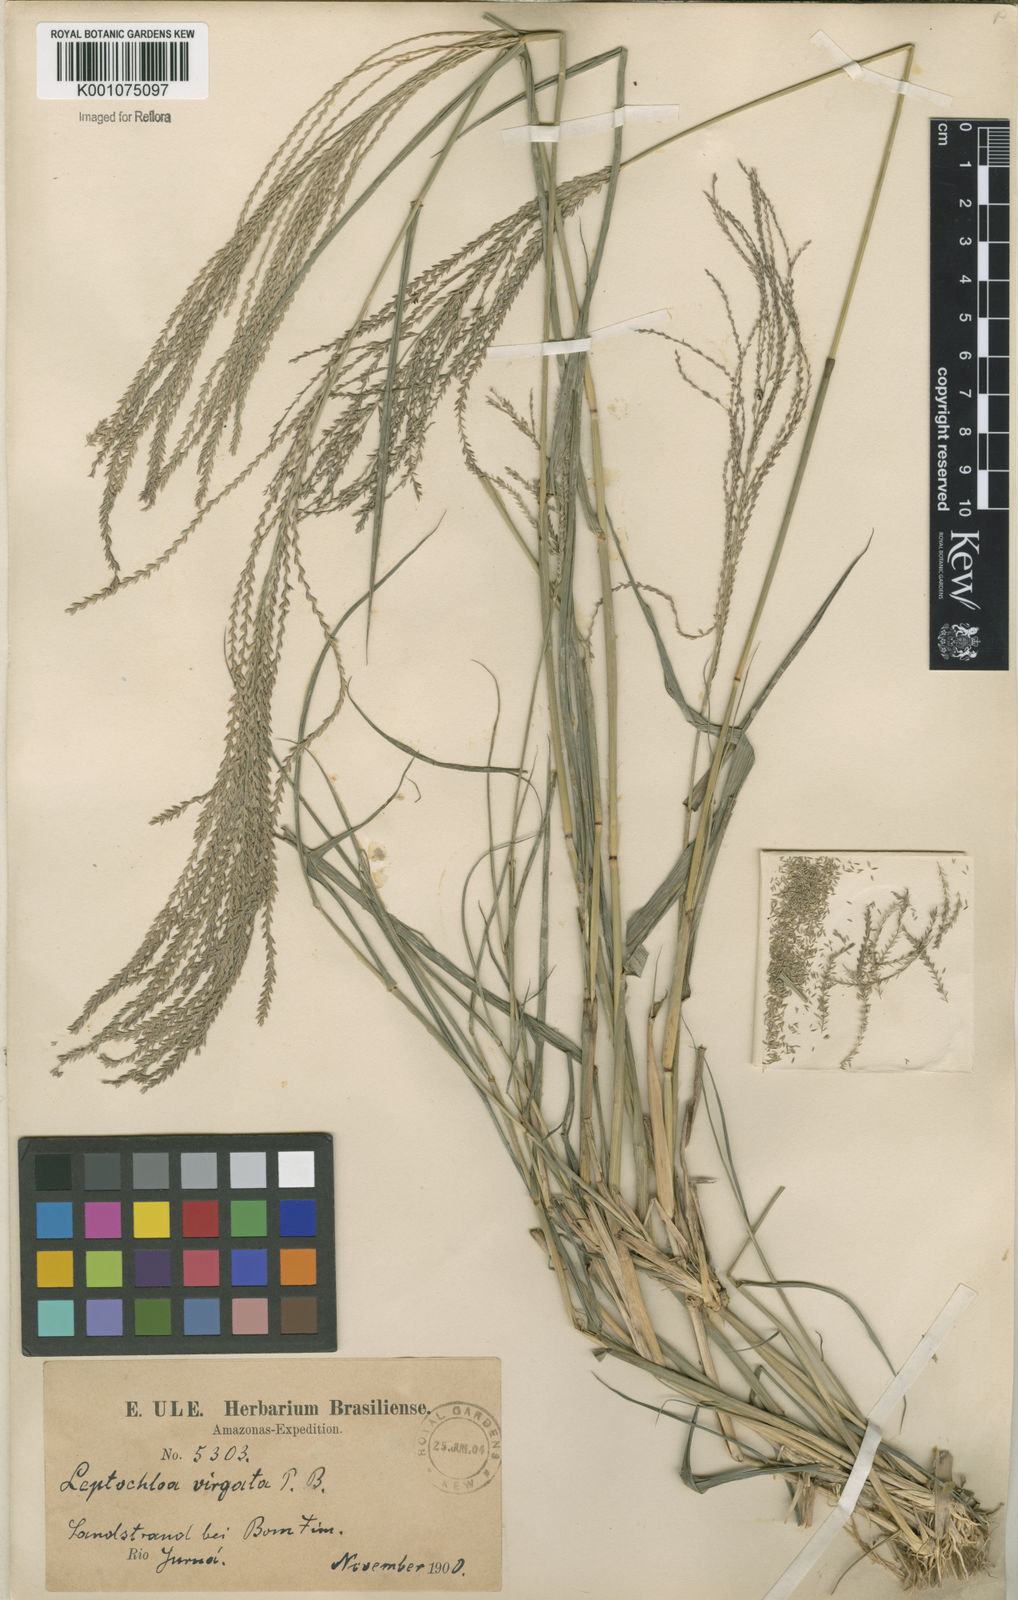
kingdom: Plantae
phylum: Tracheophyta
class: Liliopsida
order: Poales
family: Poaceae
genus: Leptochloa
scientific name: Leptochloa virgata
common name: Tropical sprangletop
